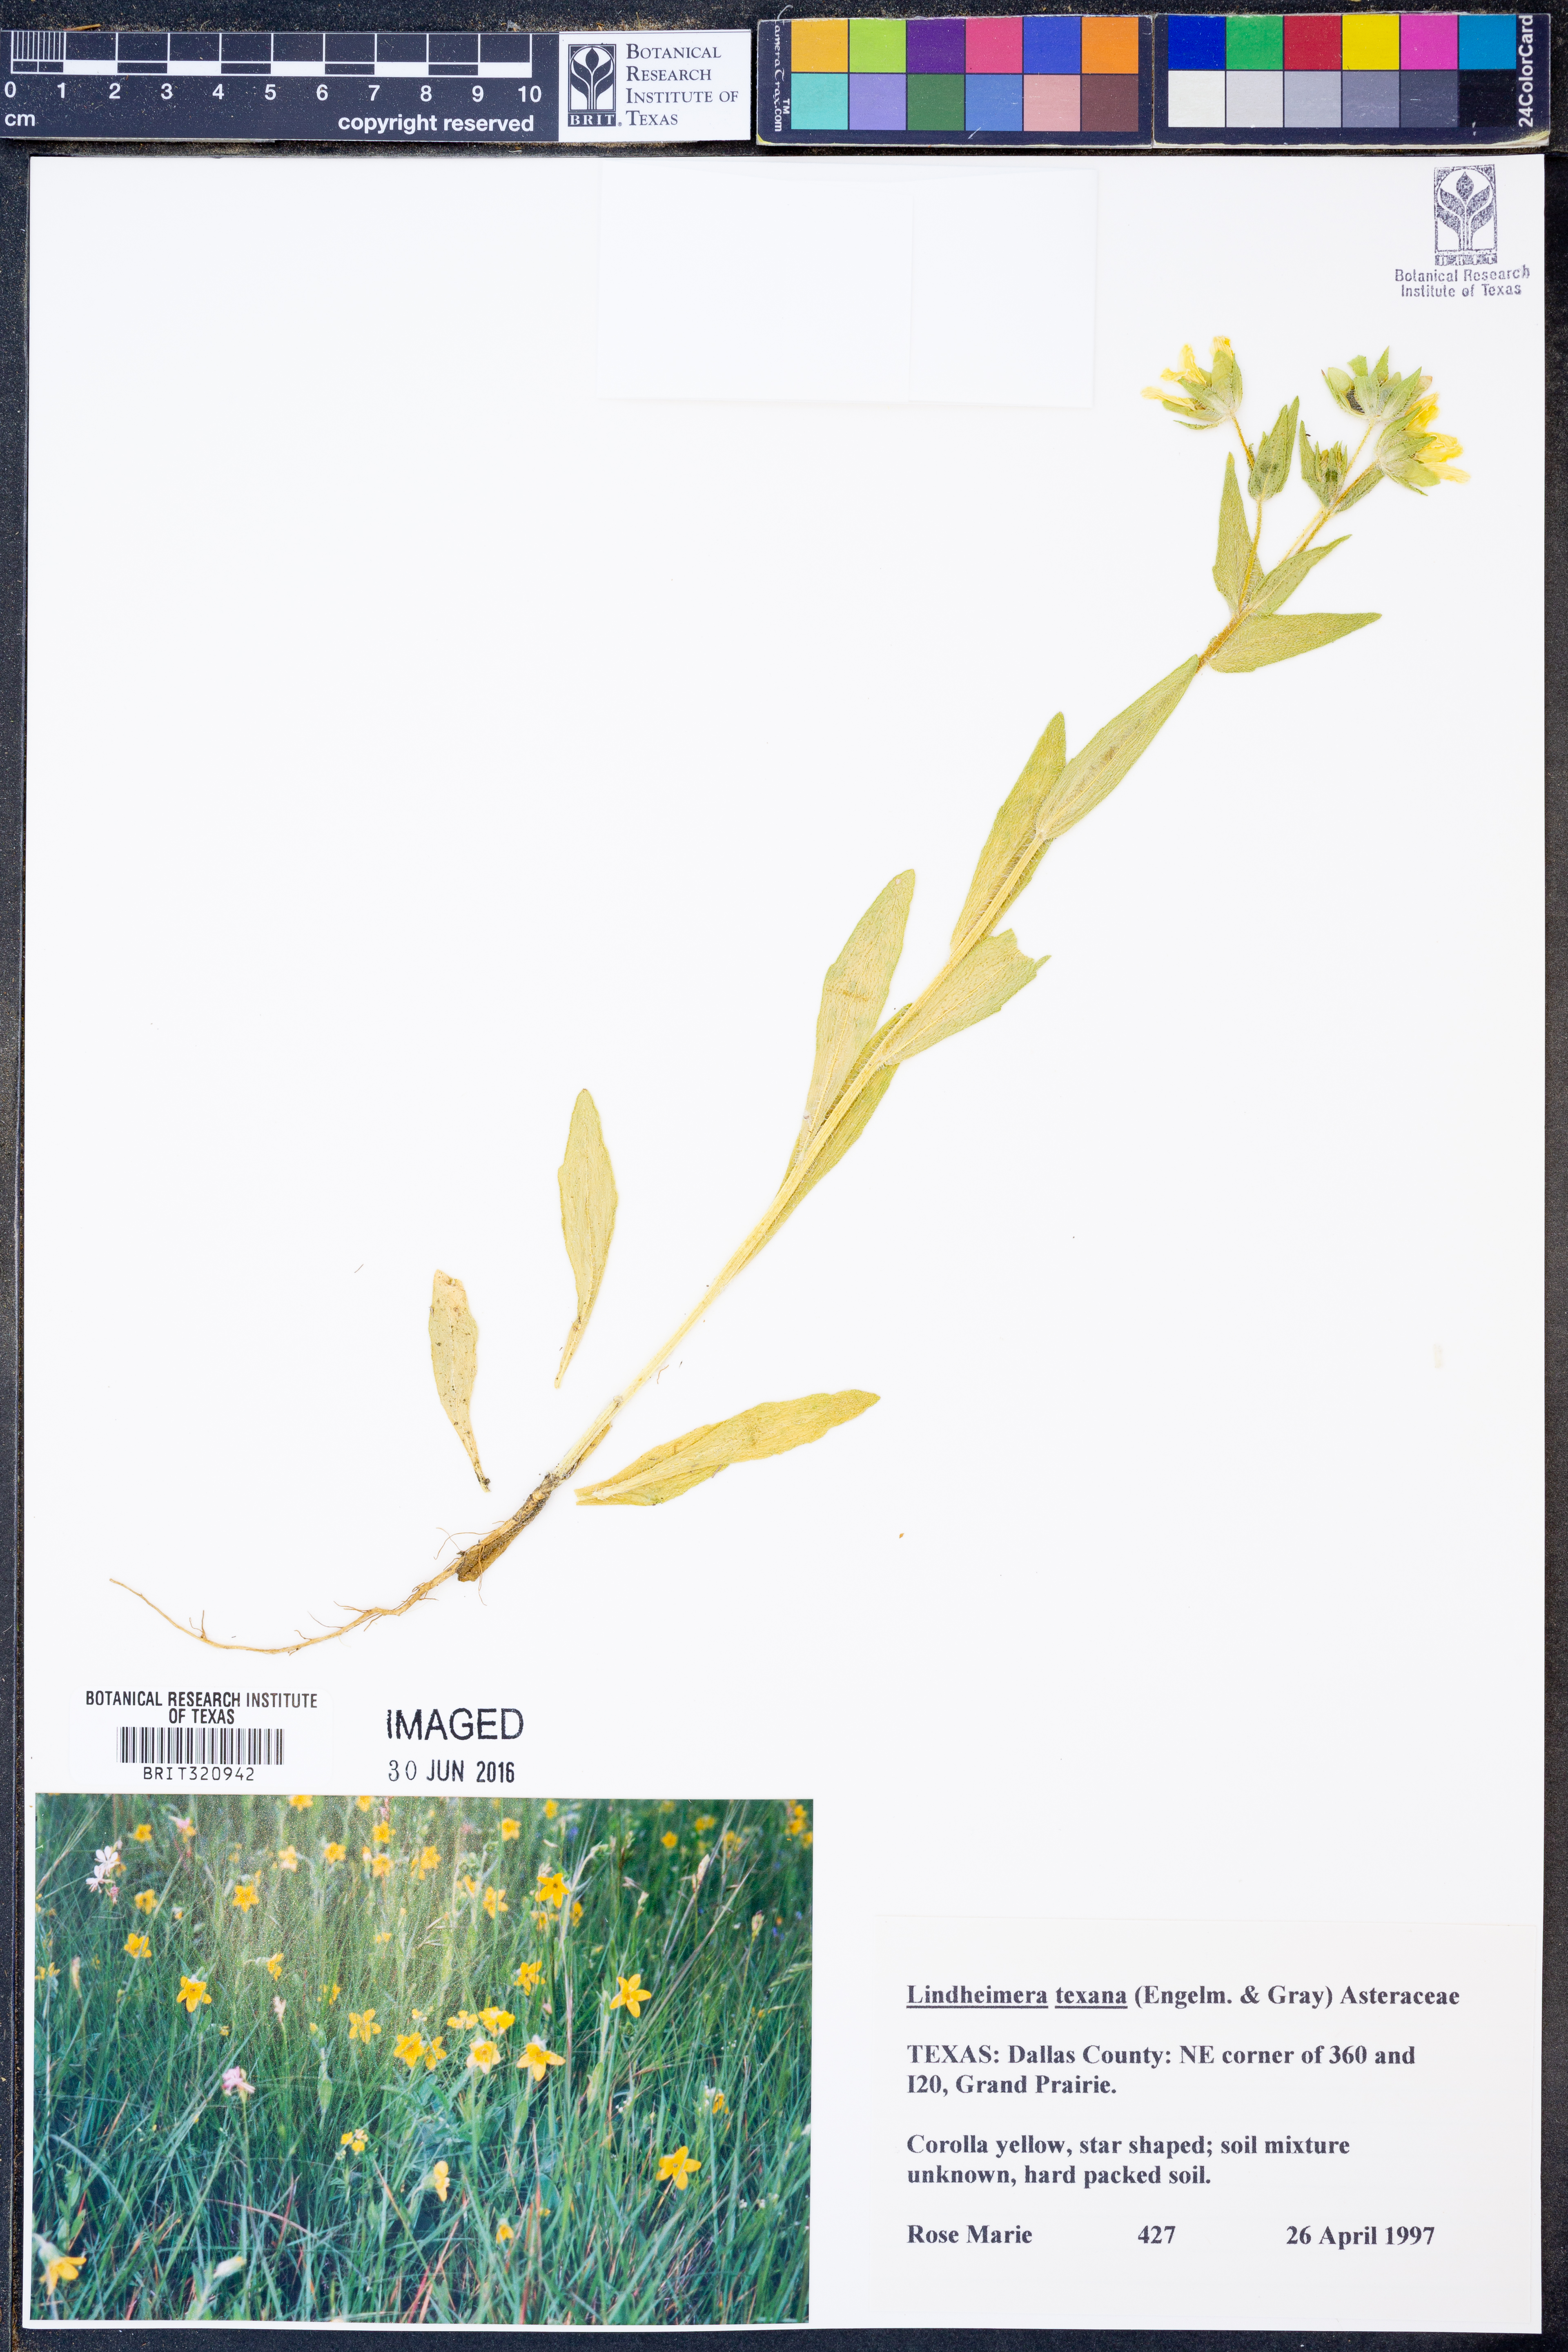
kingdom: Plantae
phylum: Tracheophyta
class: Magnoliopsida
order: Asterales
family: Asteraceae
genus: Lindheimera
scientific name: Lindheimera texana
